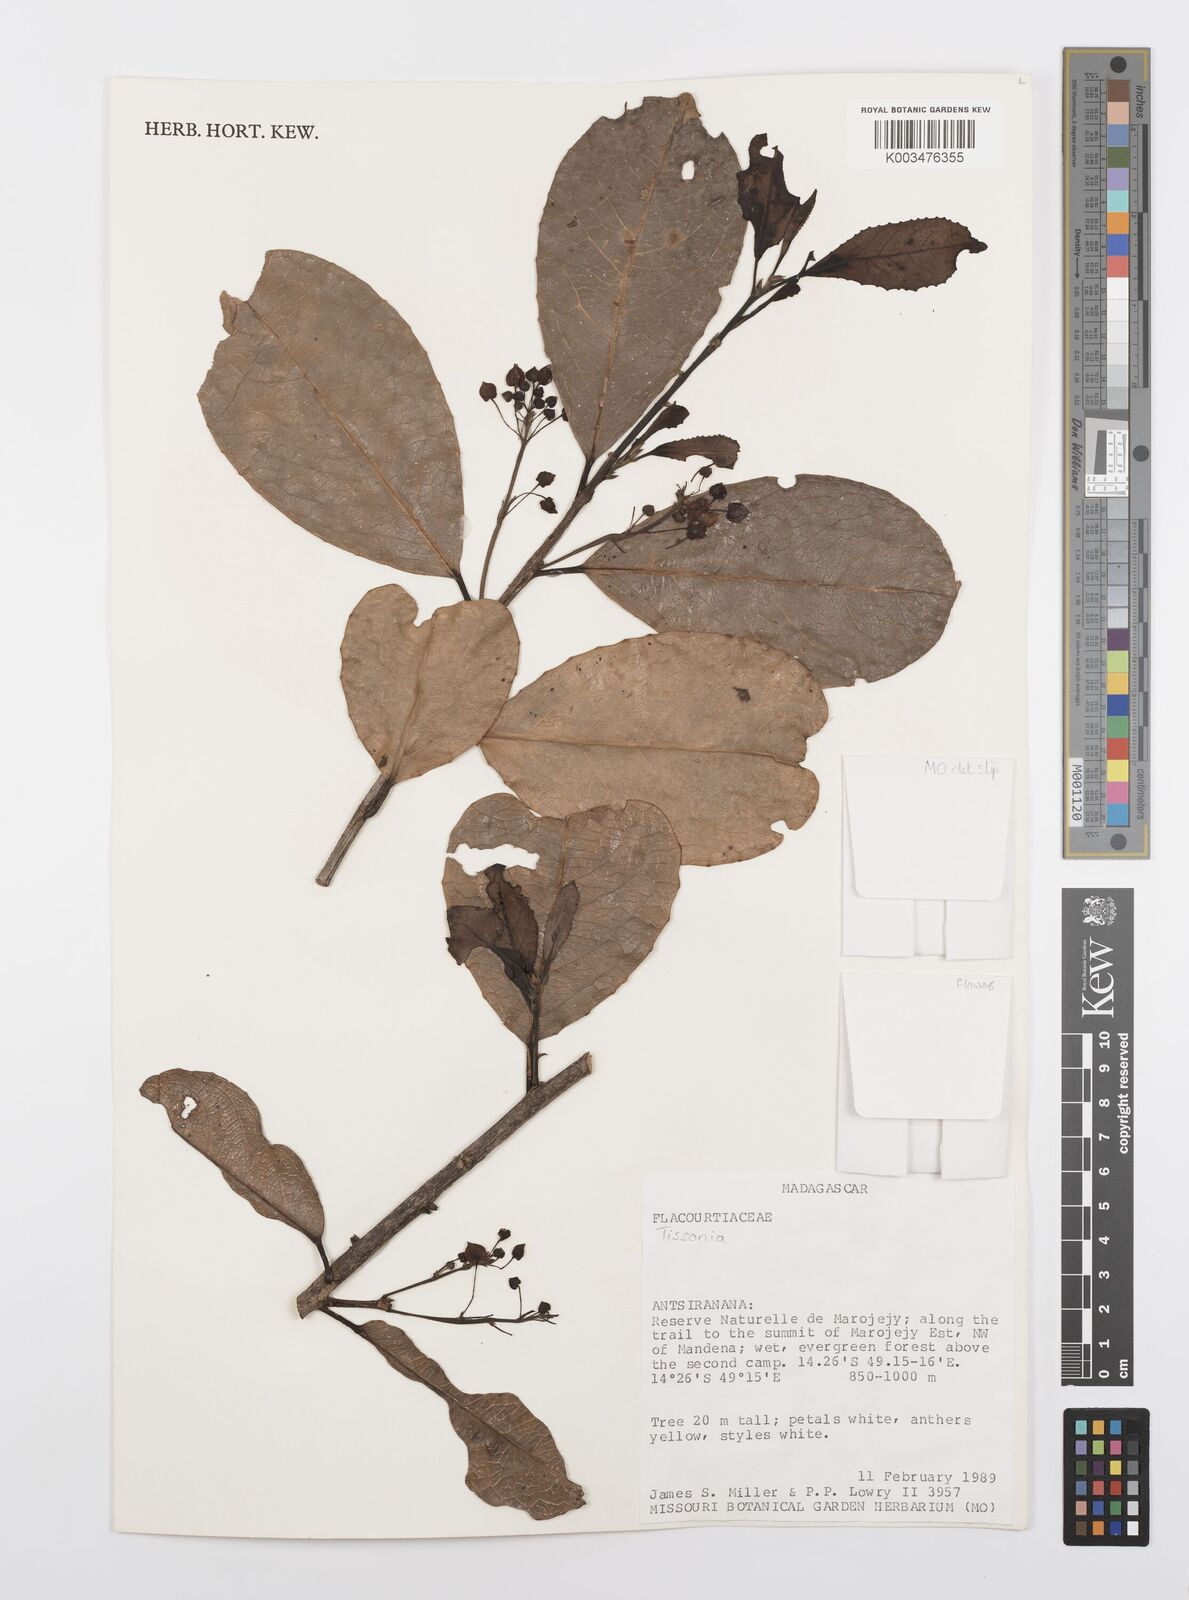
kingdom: Plantae
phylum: Tracheophyta
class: Magnoliopsida
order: Malpighiales
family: Salicaceae
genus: Tisonia
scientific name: Tisonia
